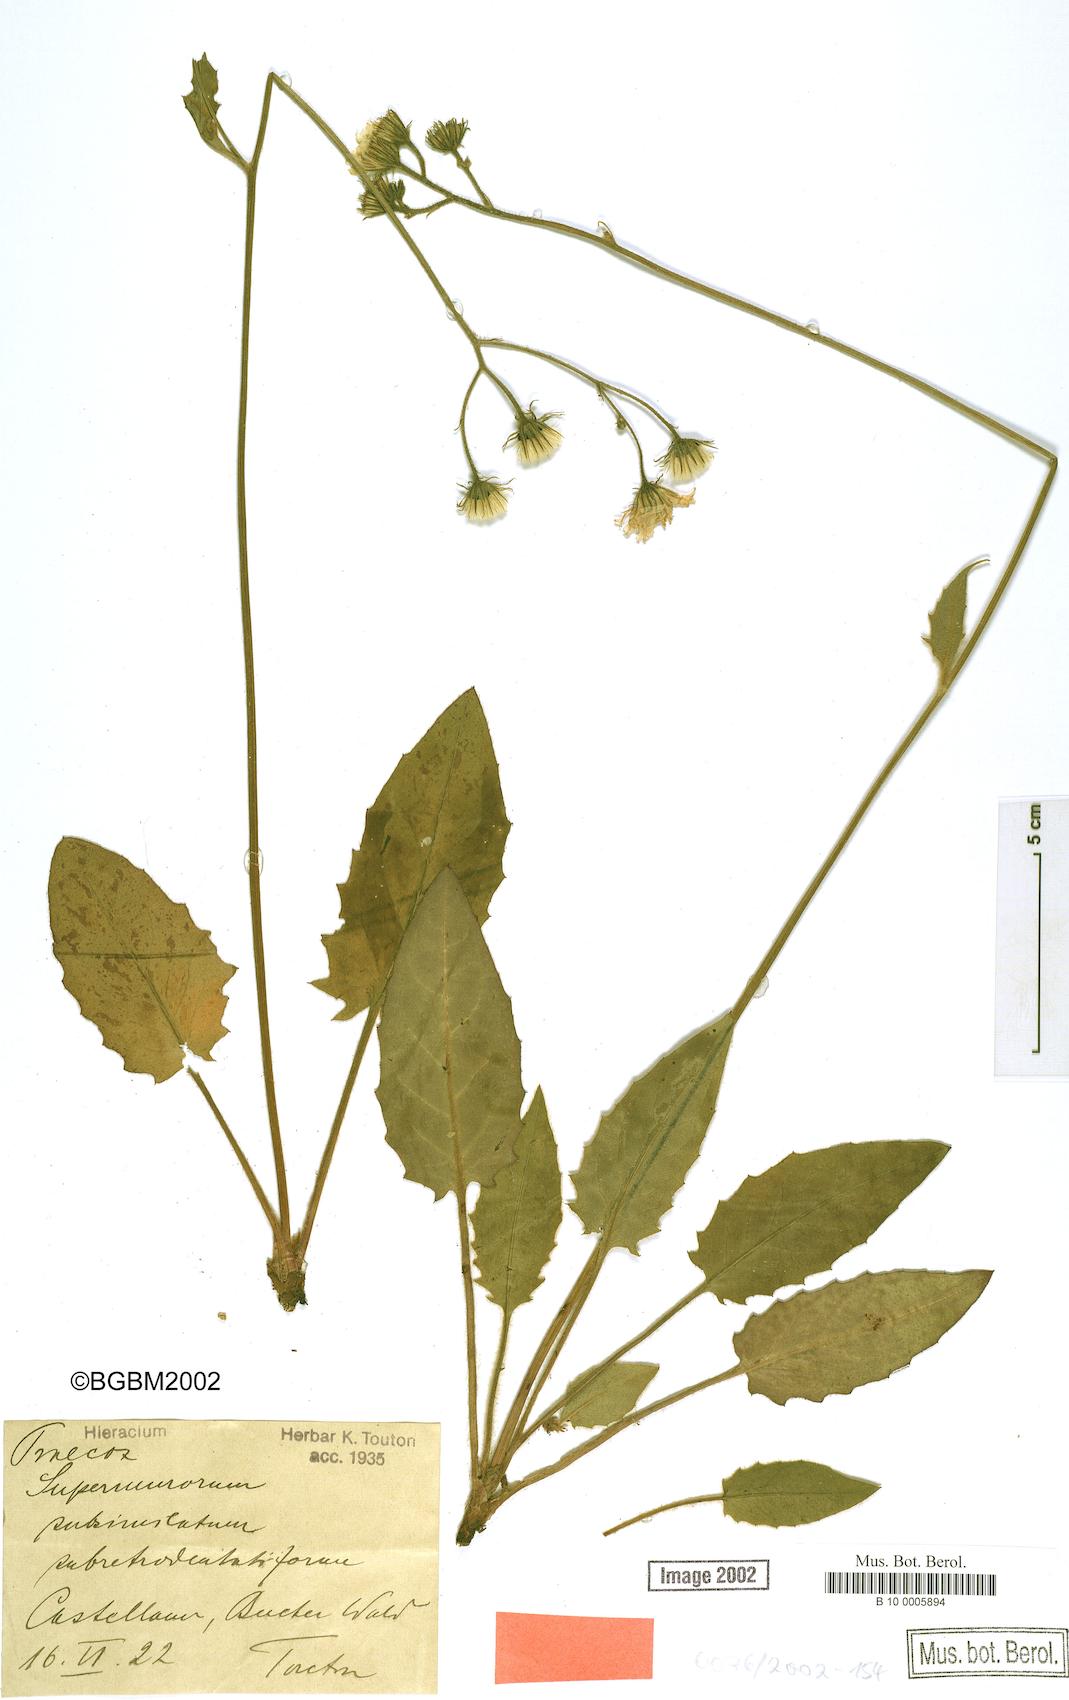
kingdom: Plantae
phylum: Tracheophyta
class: Magnoliopsida
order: Asterales
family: Asteraceae
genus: Hieracium
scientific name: Hieracium praecox
